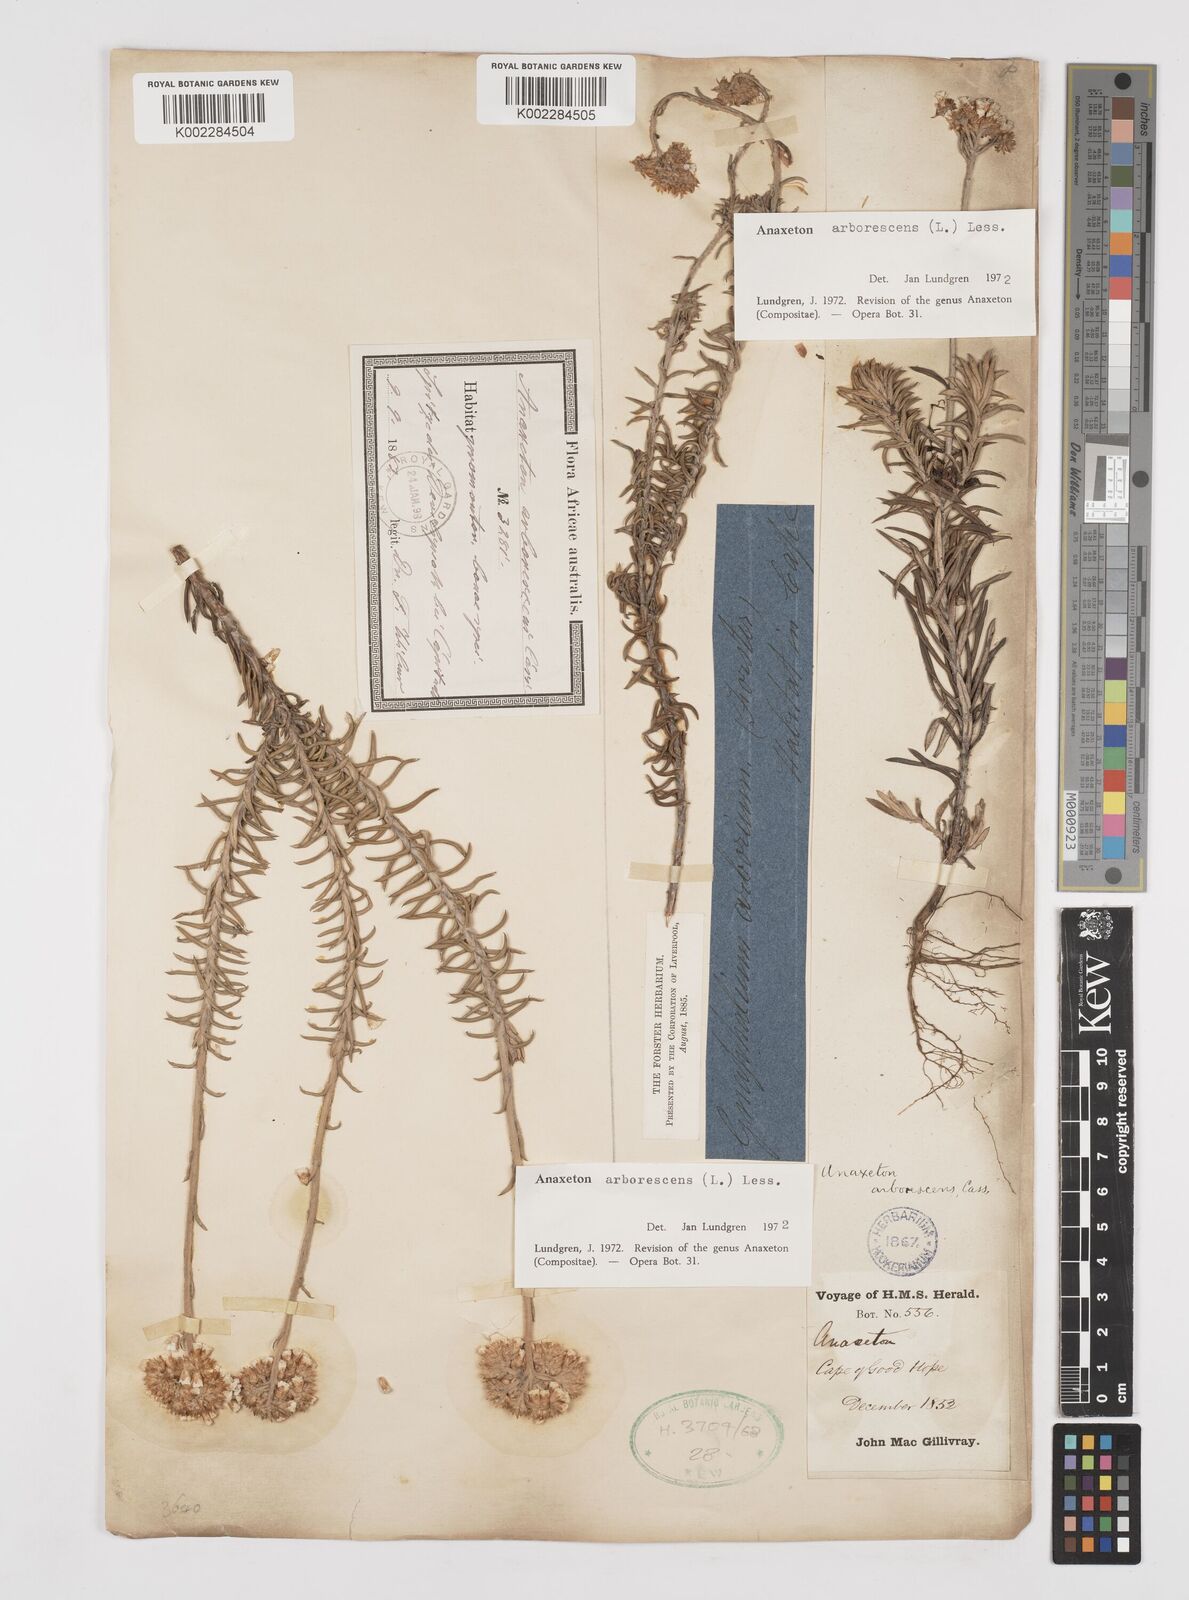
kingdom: Plantae
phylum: Tracheophyta
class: Magnoliopsida
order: Asterales
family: Asteraceae
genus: Anaxeton
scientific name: Anaxeton arborescens
